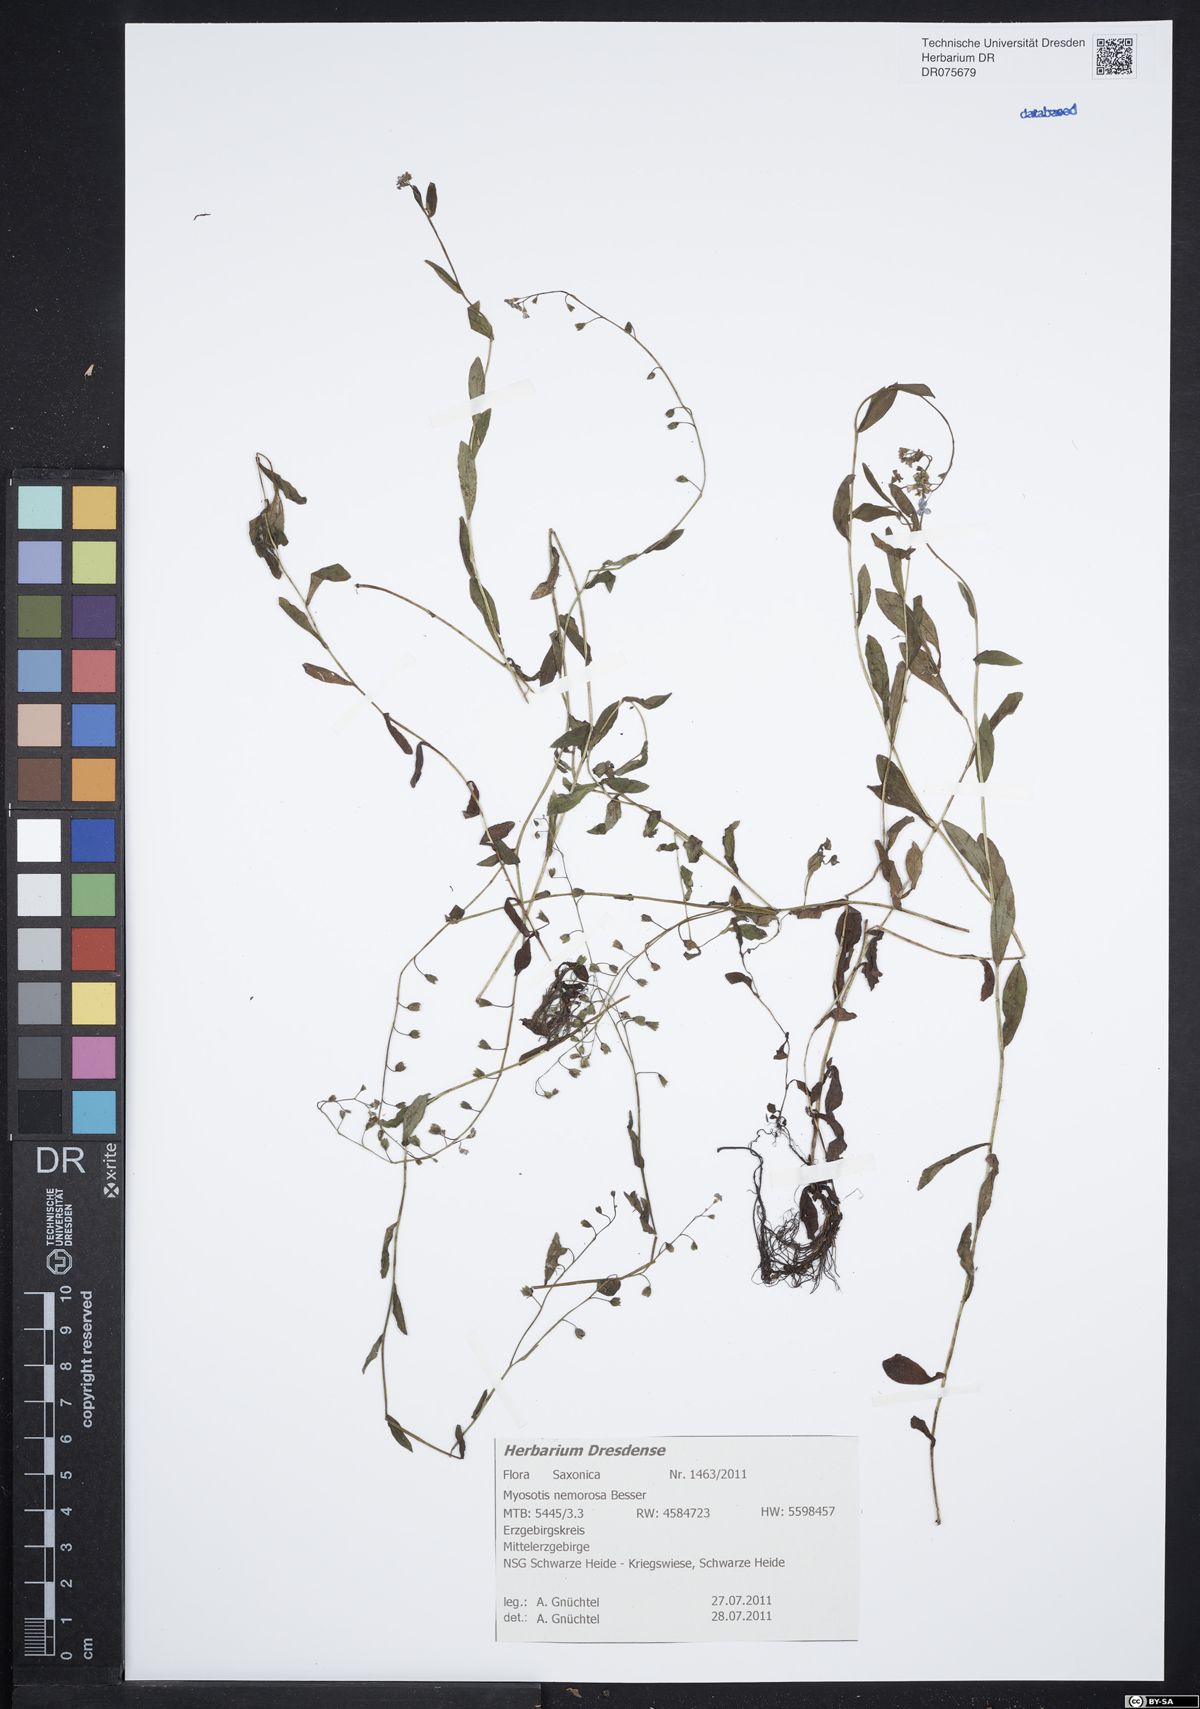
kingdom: Plantae
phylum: Tracheophyta
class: Magnoliopsida
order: Boraginales
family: Boraginaceae
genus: Myosotis
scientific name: Myosotis nemorosa
